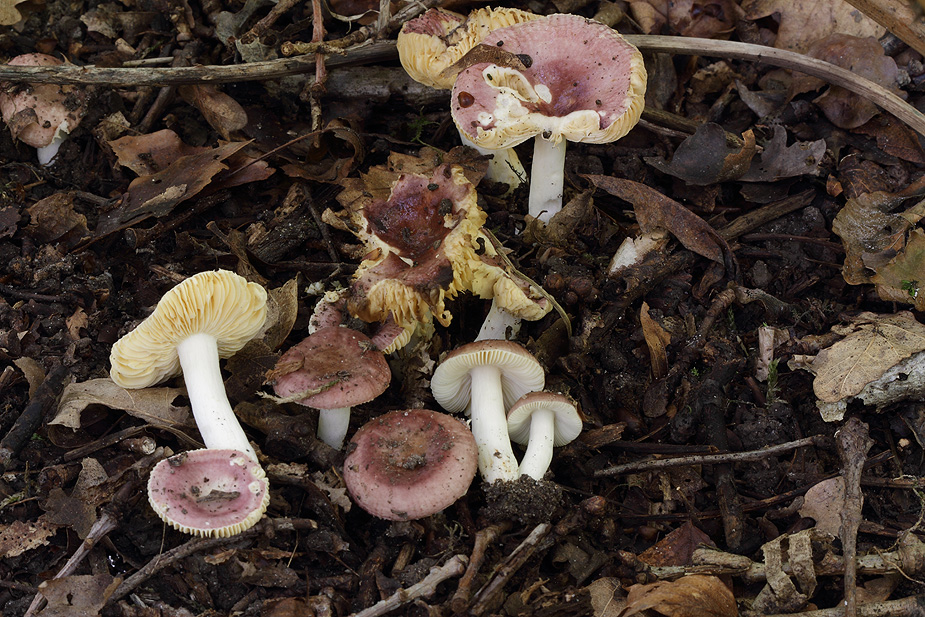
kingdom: Fungi
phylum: Basidiomycota
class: Agaricomycetes
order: Russulales
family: Russulaceae
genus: Russula
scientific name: Russula odorata
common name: duft-skørhat
